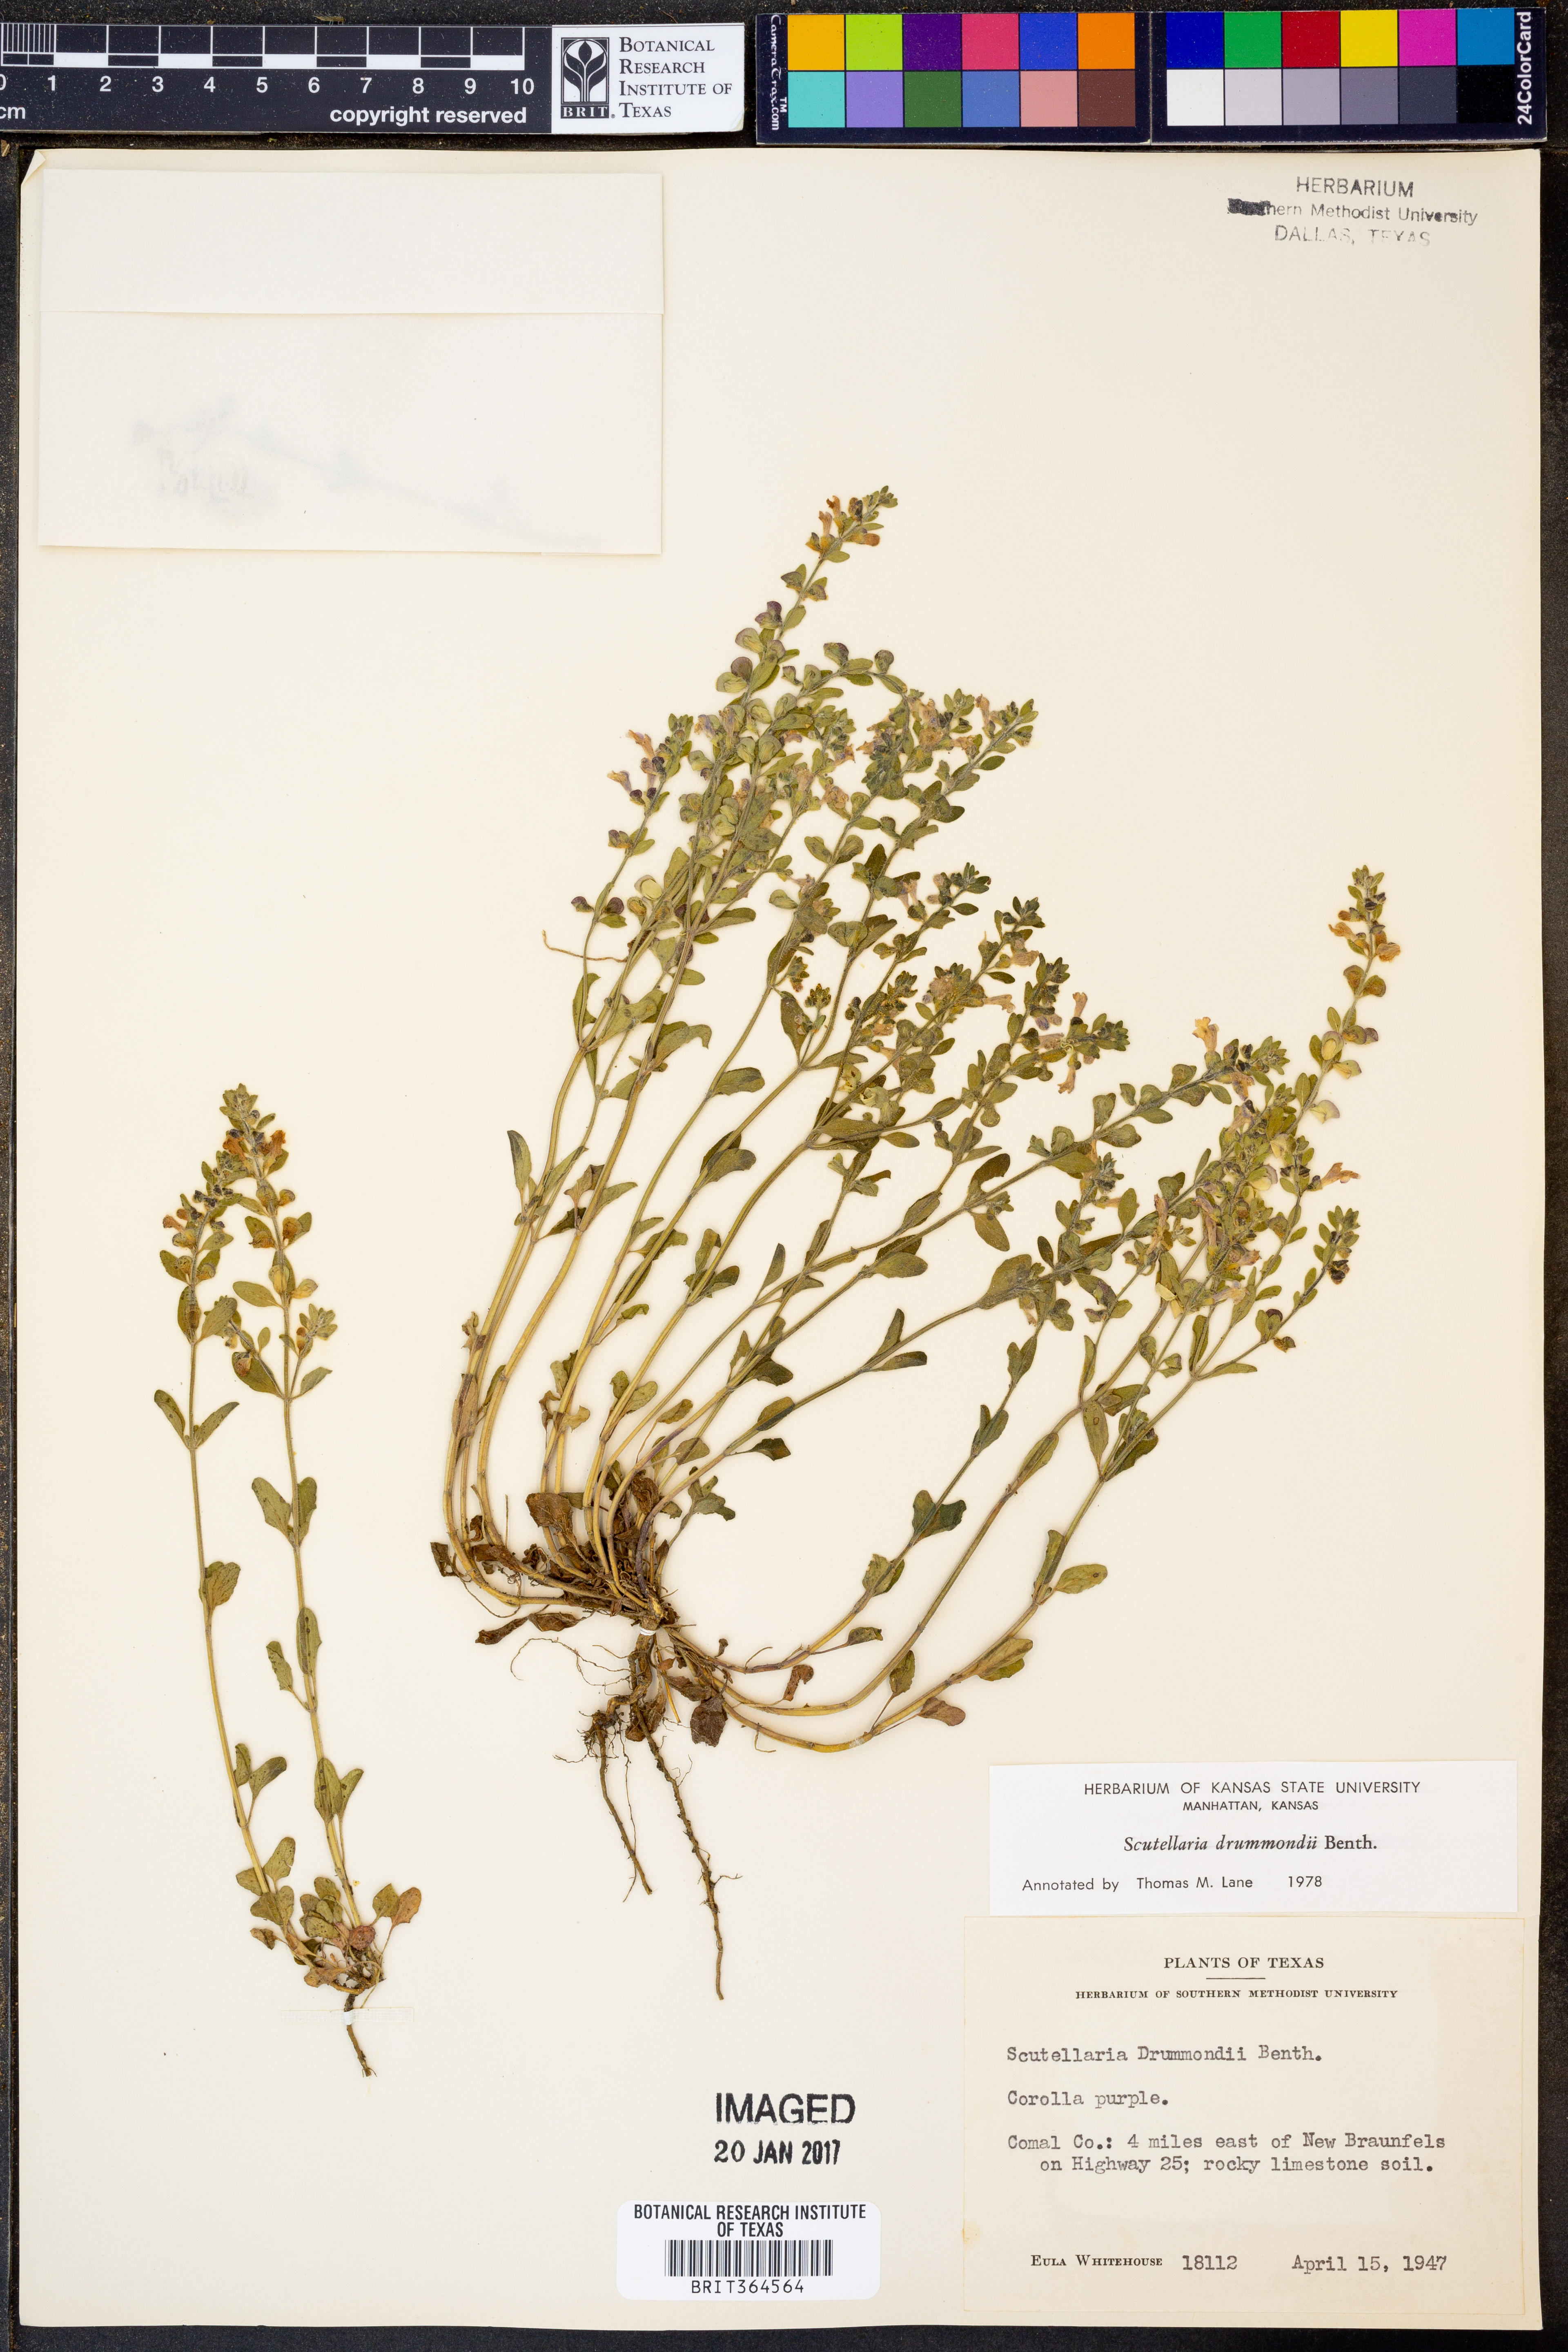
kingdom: Plantae
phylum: Tracheophyta
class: Magnoliopsida
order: Lamiales
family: Lamiaceae
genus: Scutellaria
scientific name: Scutellaria drummondii
